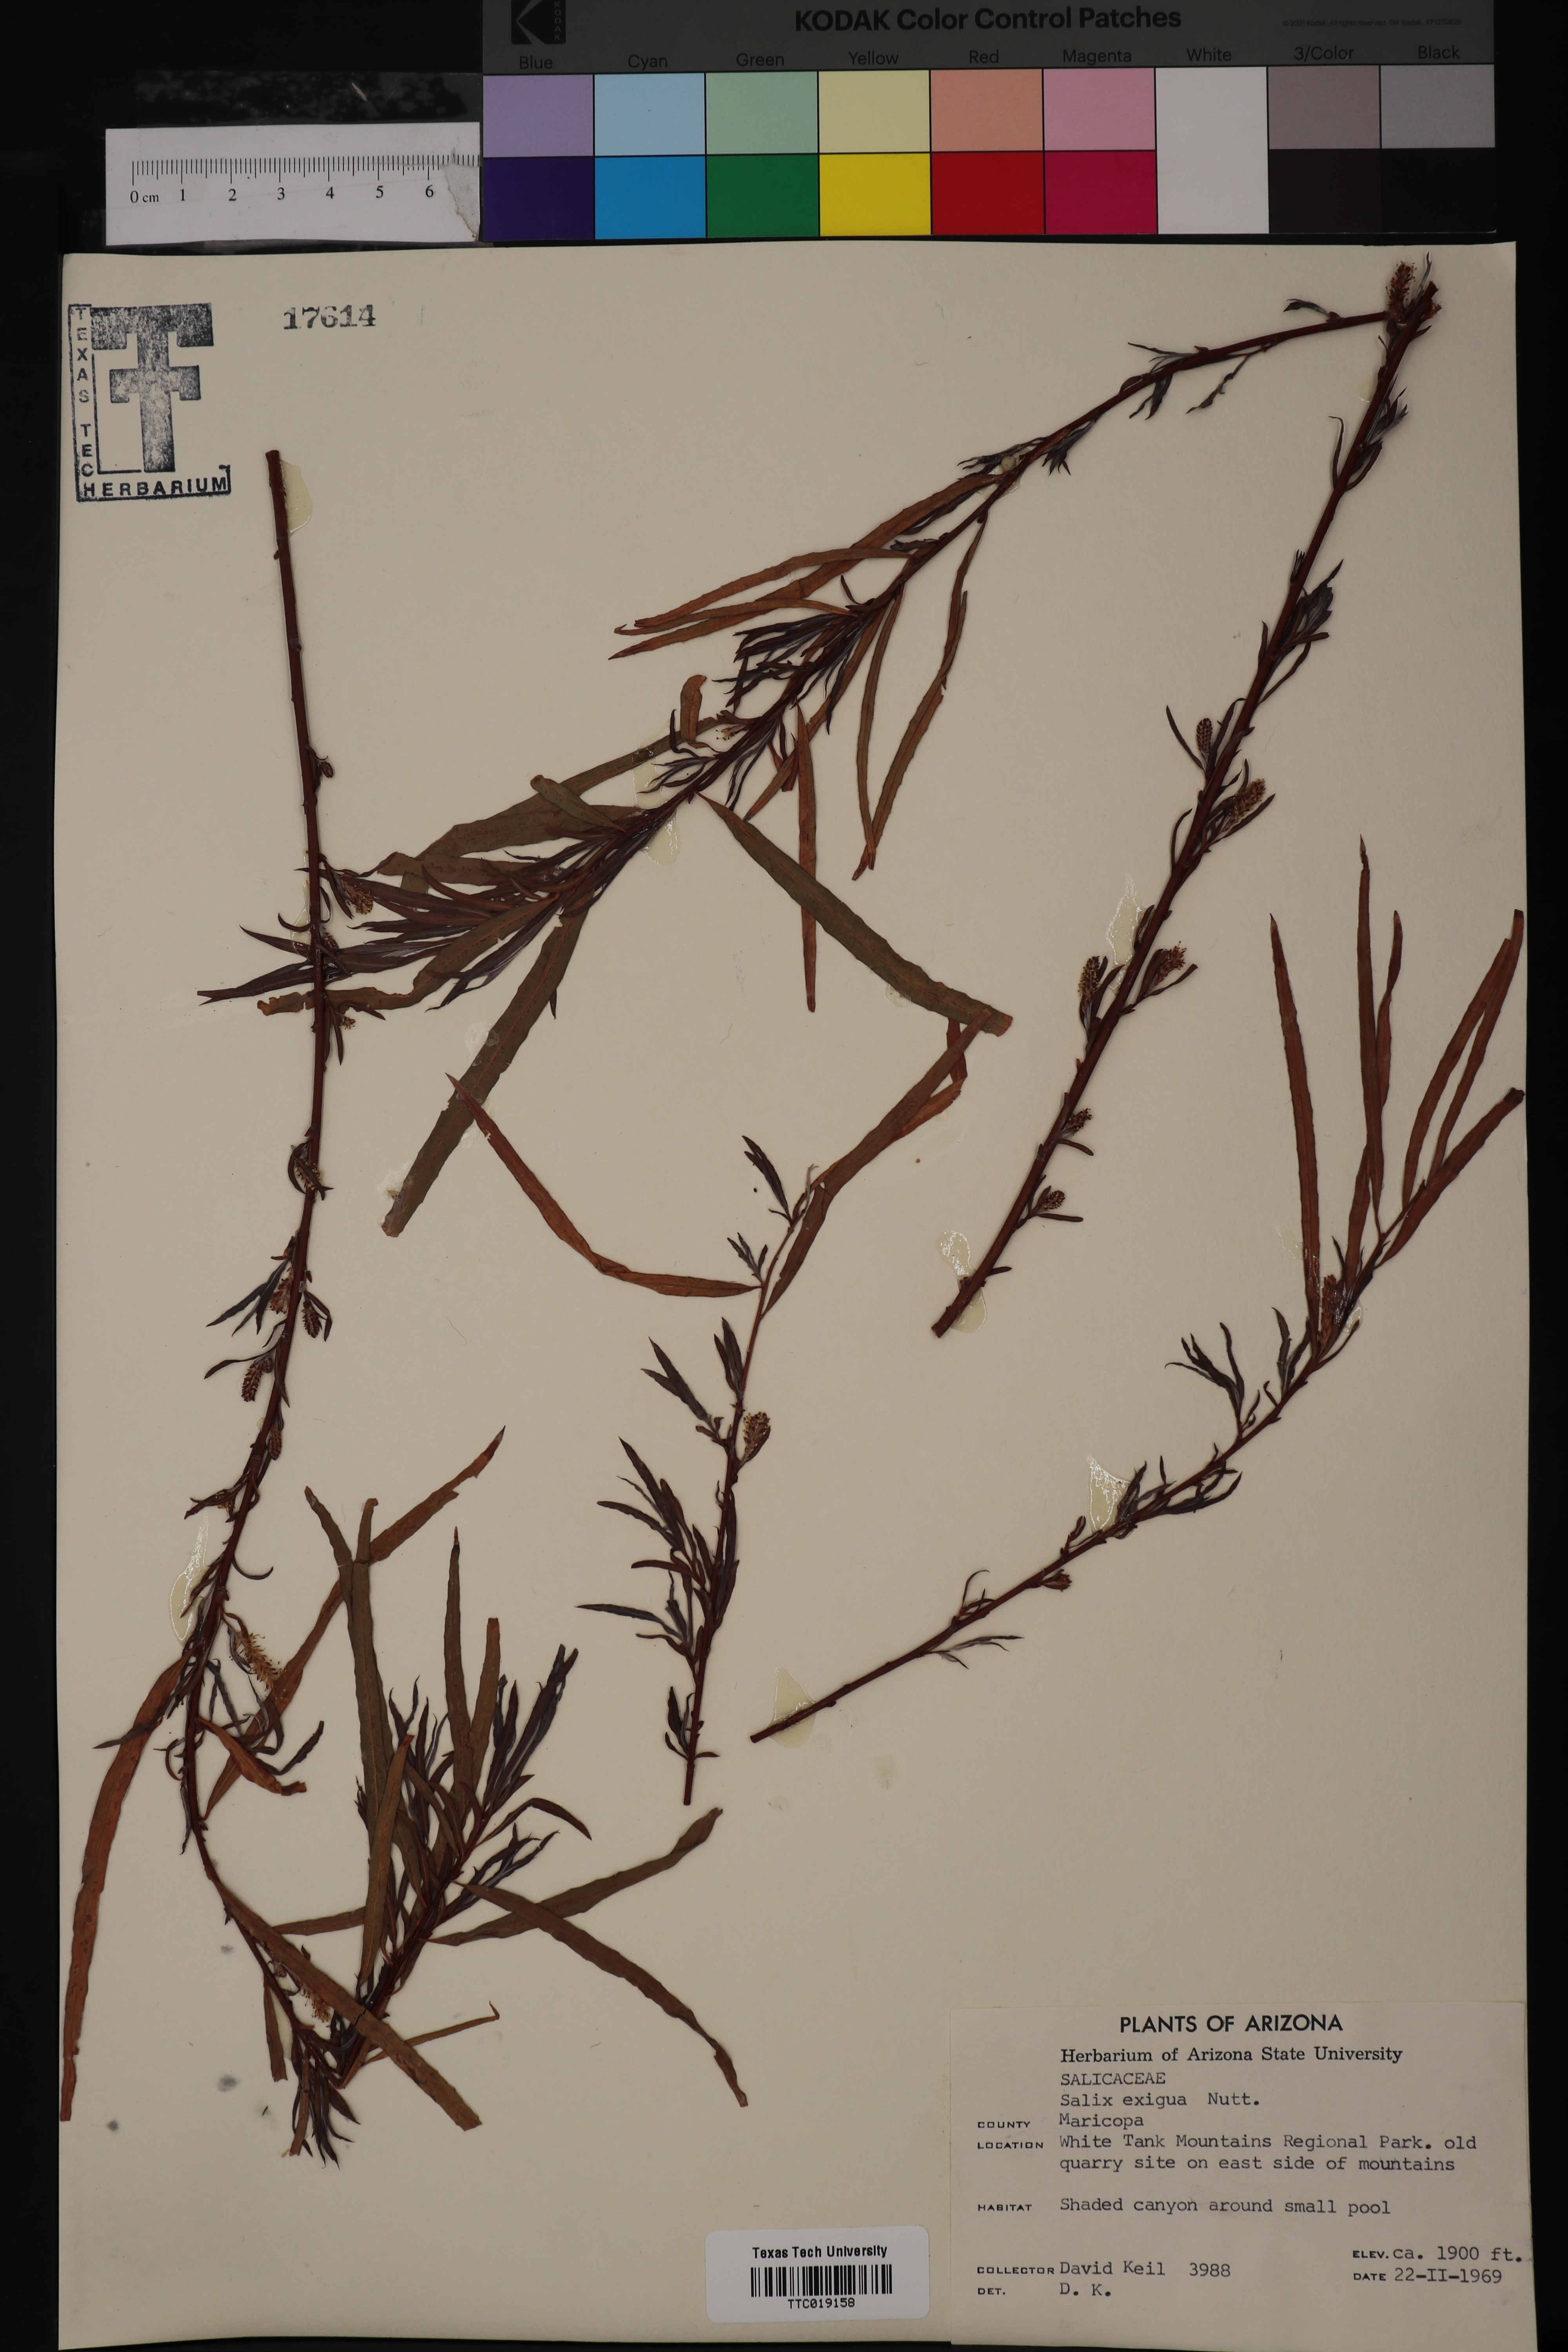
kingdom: Plantae
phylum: Tracheophyta
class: Magnoliopsida
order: Malpighiales
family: Salicaceae
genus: Salix
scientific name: Salix exigua
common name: Coyote willow
